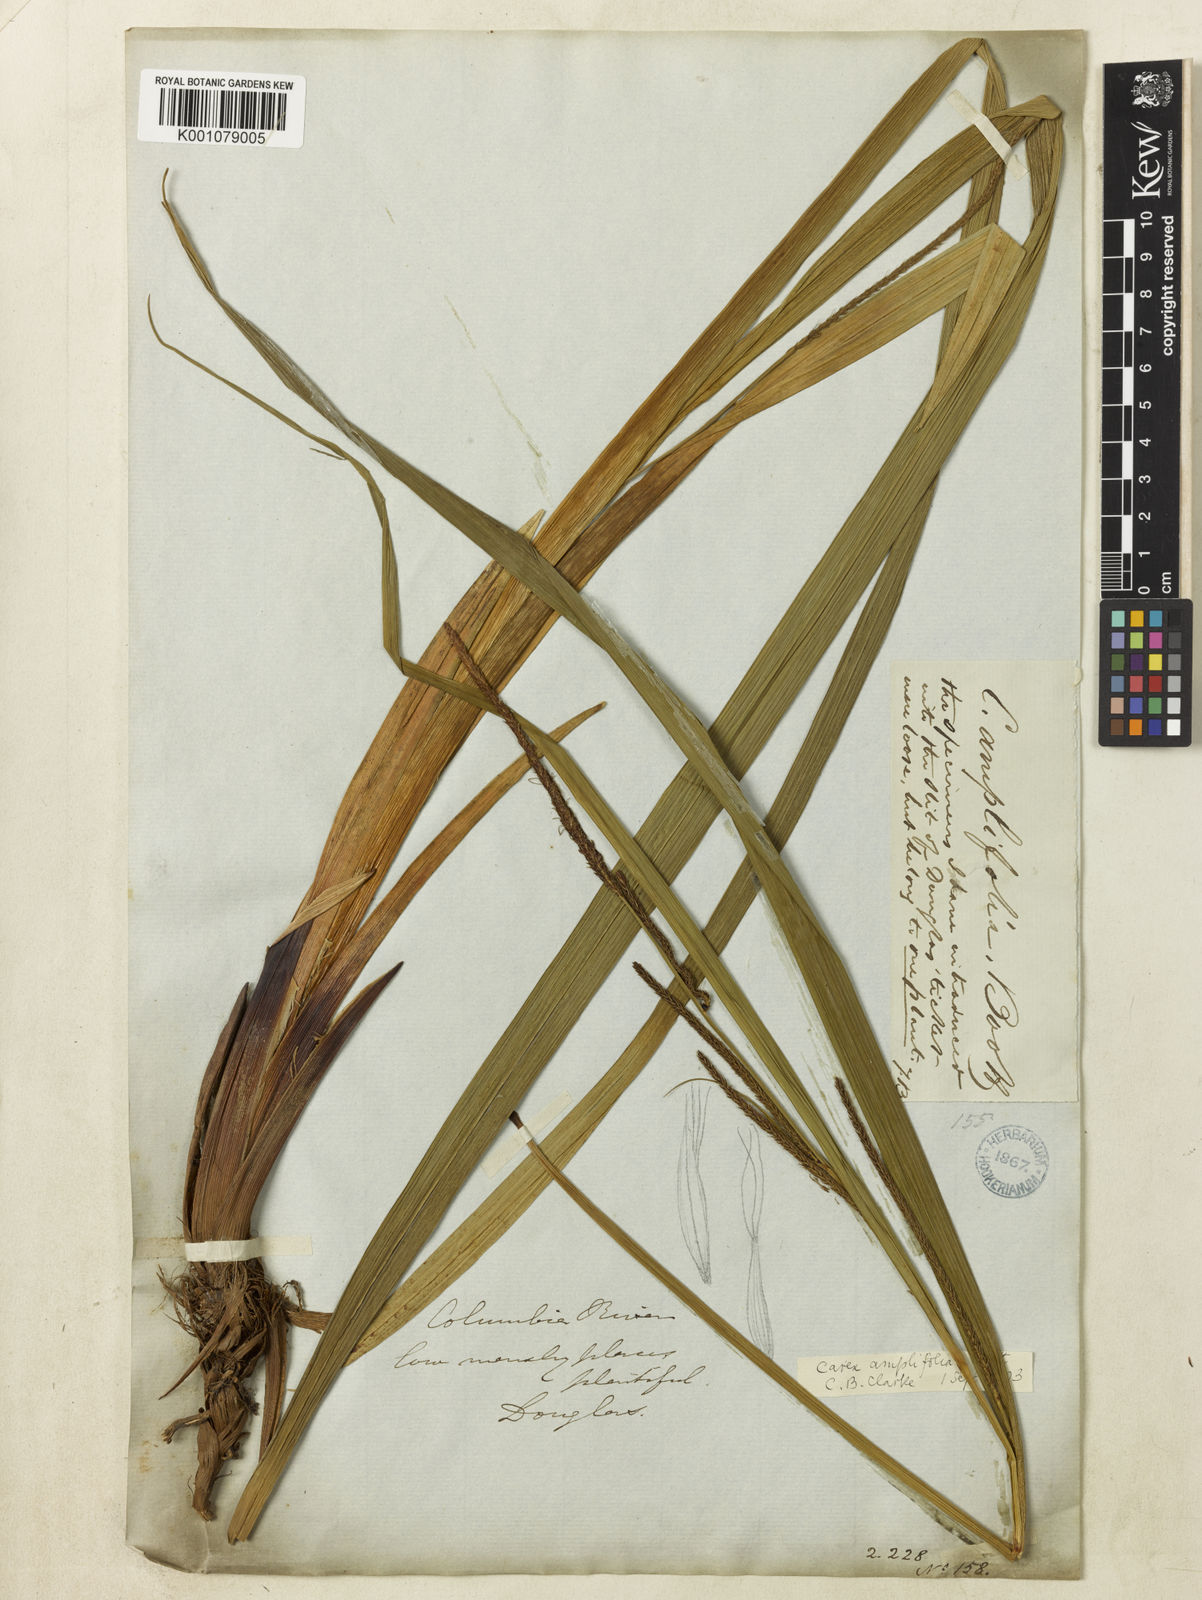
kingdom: Plantae
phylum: Tracheophyta
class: Liliopsida
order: Poales
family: Cyperaceae
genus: Carex
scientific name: Carex amplifolia
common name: Ample-leaved sedge
